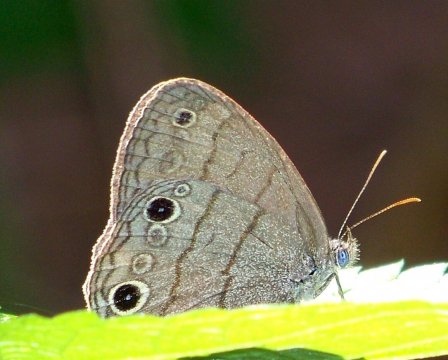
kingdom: Animalia
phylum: Arthropoda
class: Insecta
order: Lepidoptera
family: Nymphalidae
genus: Hermeuptychia
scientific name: Hermeuptychia intricata
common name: Intricate Satyr
